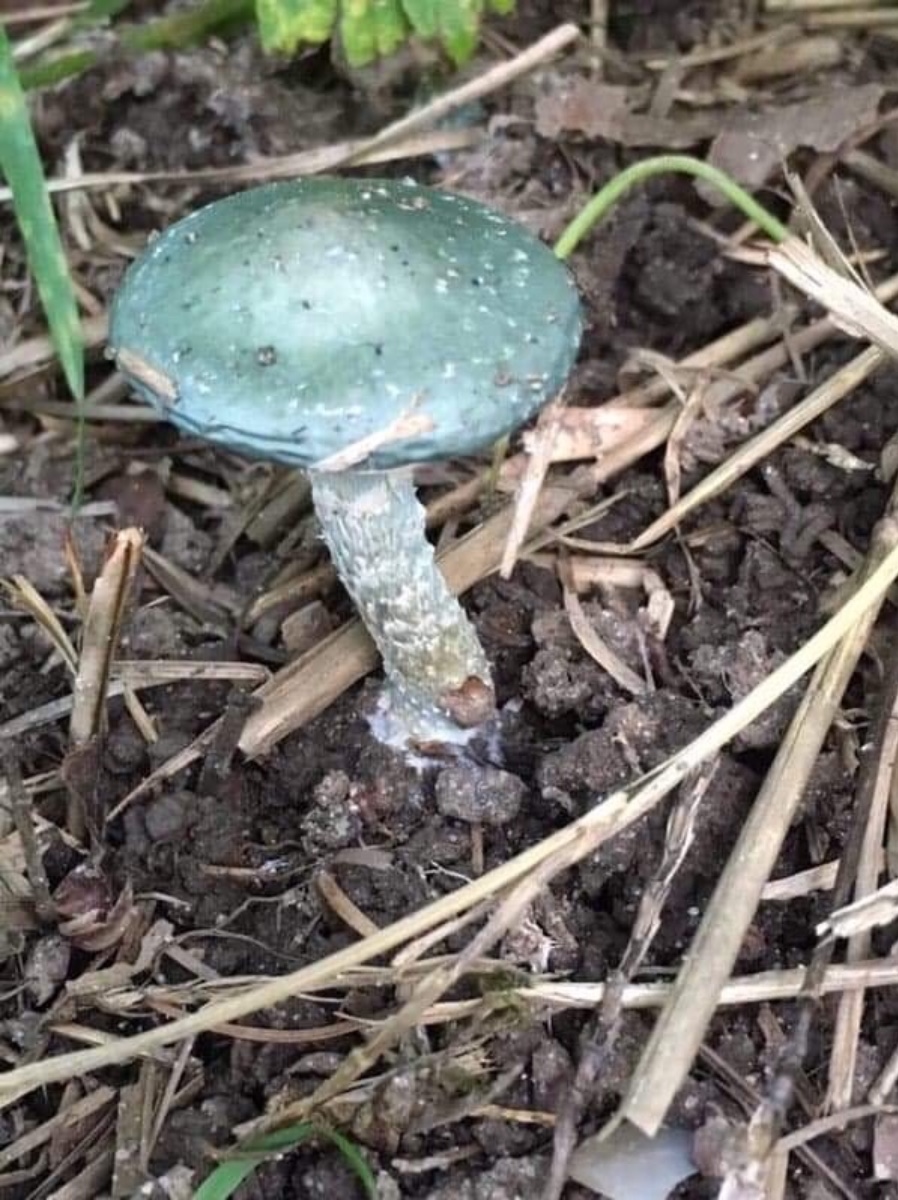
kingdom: Fungi
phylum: Basidiomycota
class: Agaricomycetes
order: Agaricales
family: Strophariaceae
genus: Stropharia
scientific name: Stropharia cyanea
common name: blågrøn bredblad
